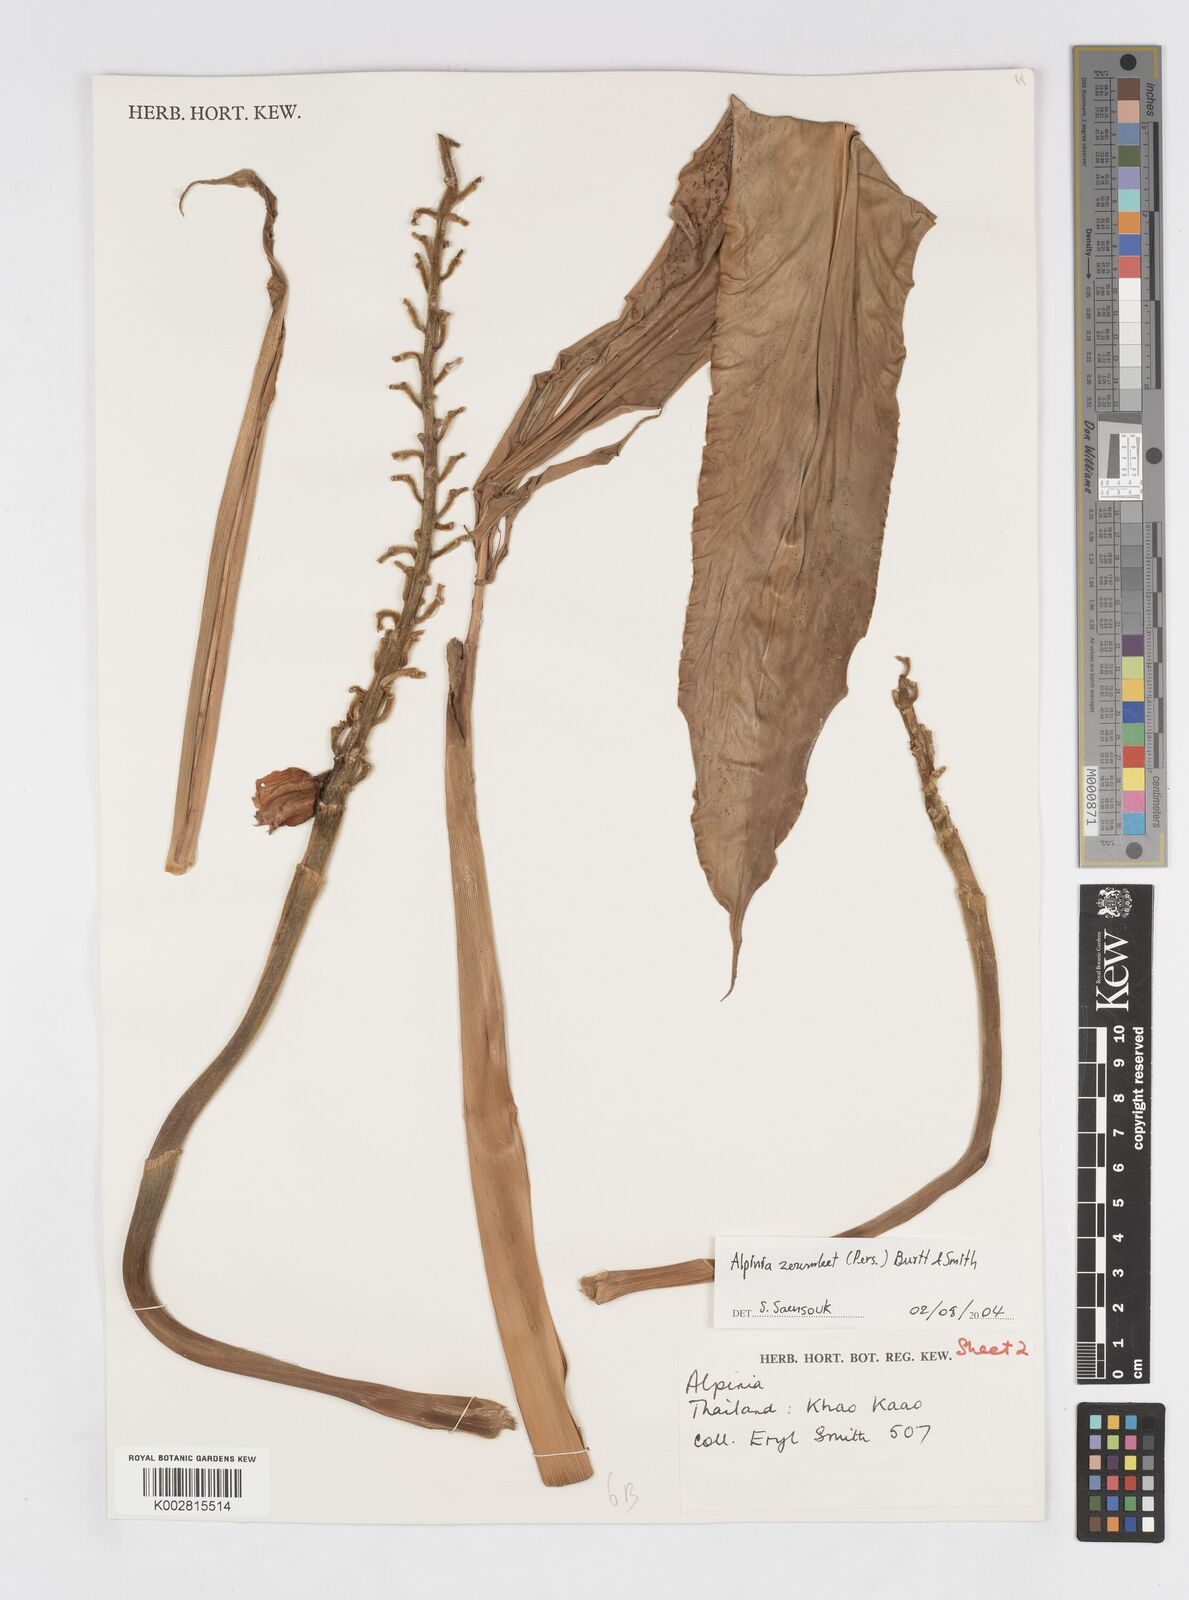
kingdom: Plantae
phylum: Tracheophyta
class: Liliopsida
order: Zingiberales
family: Zingiberaceae
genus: Alpinia
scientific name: Alpinia zerumbet
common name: Shellplant
